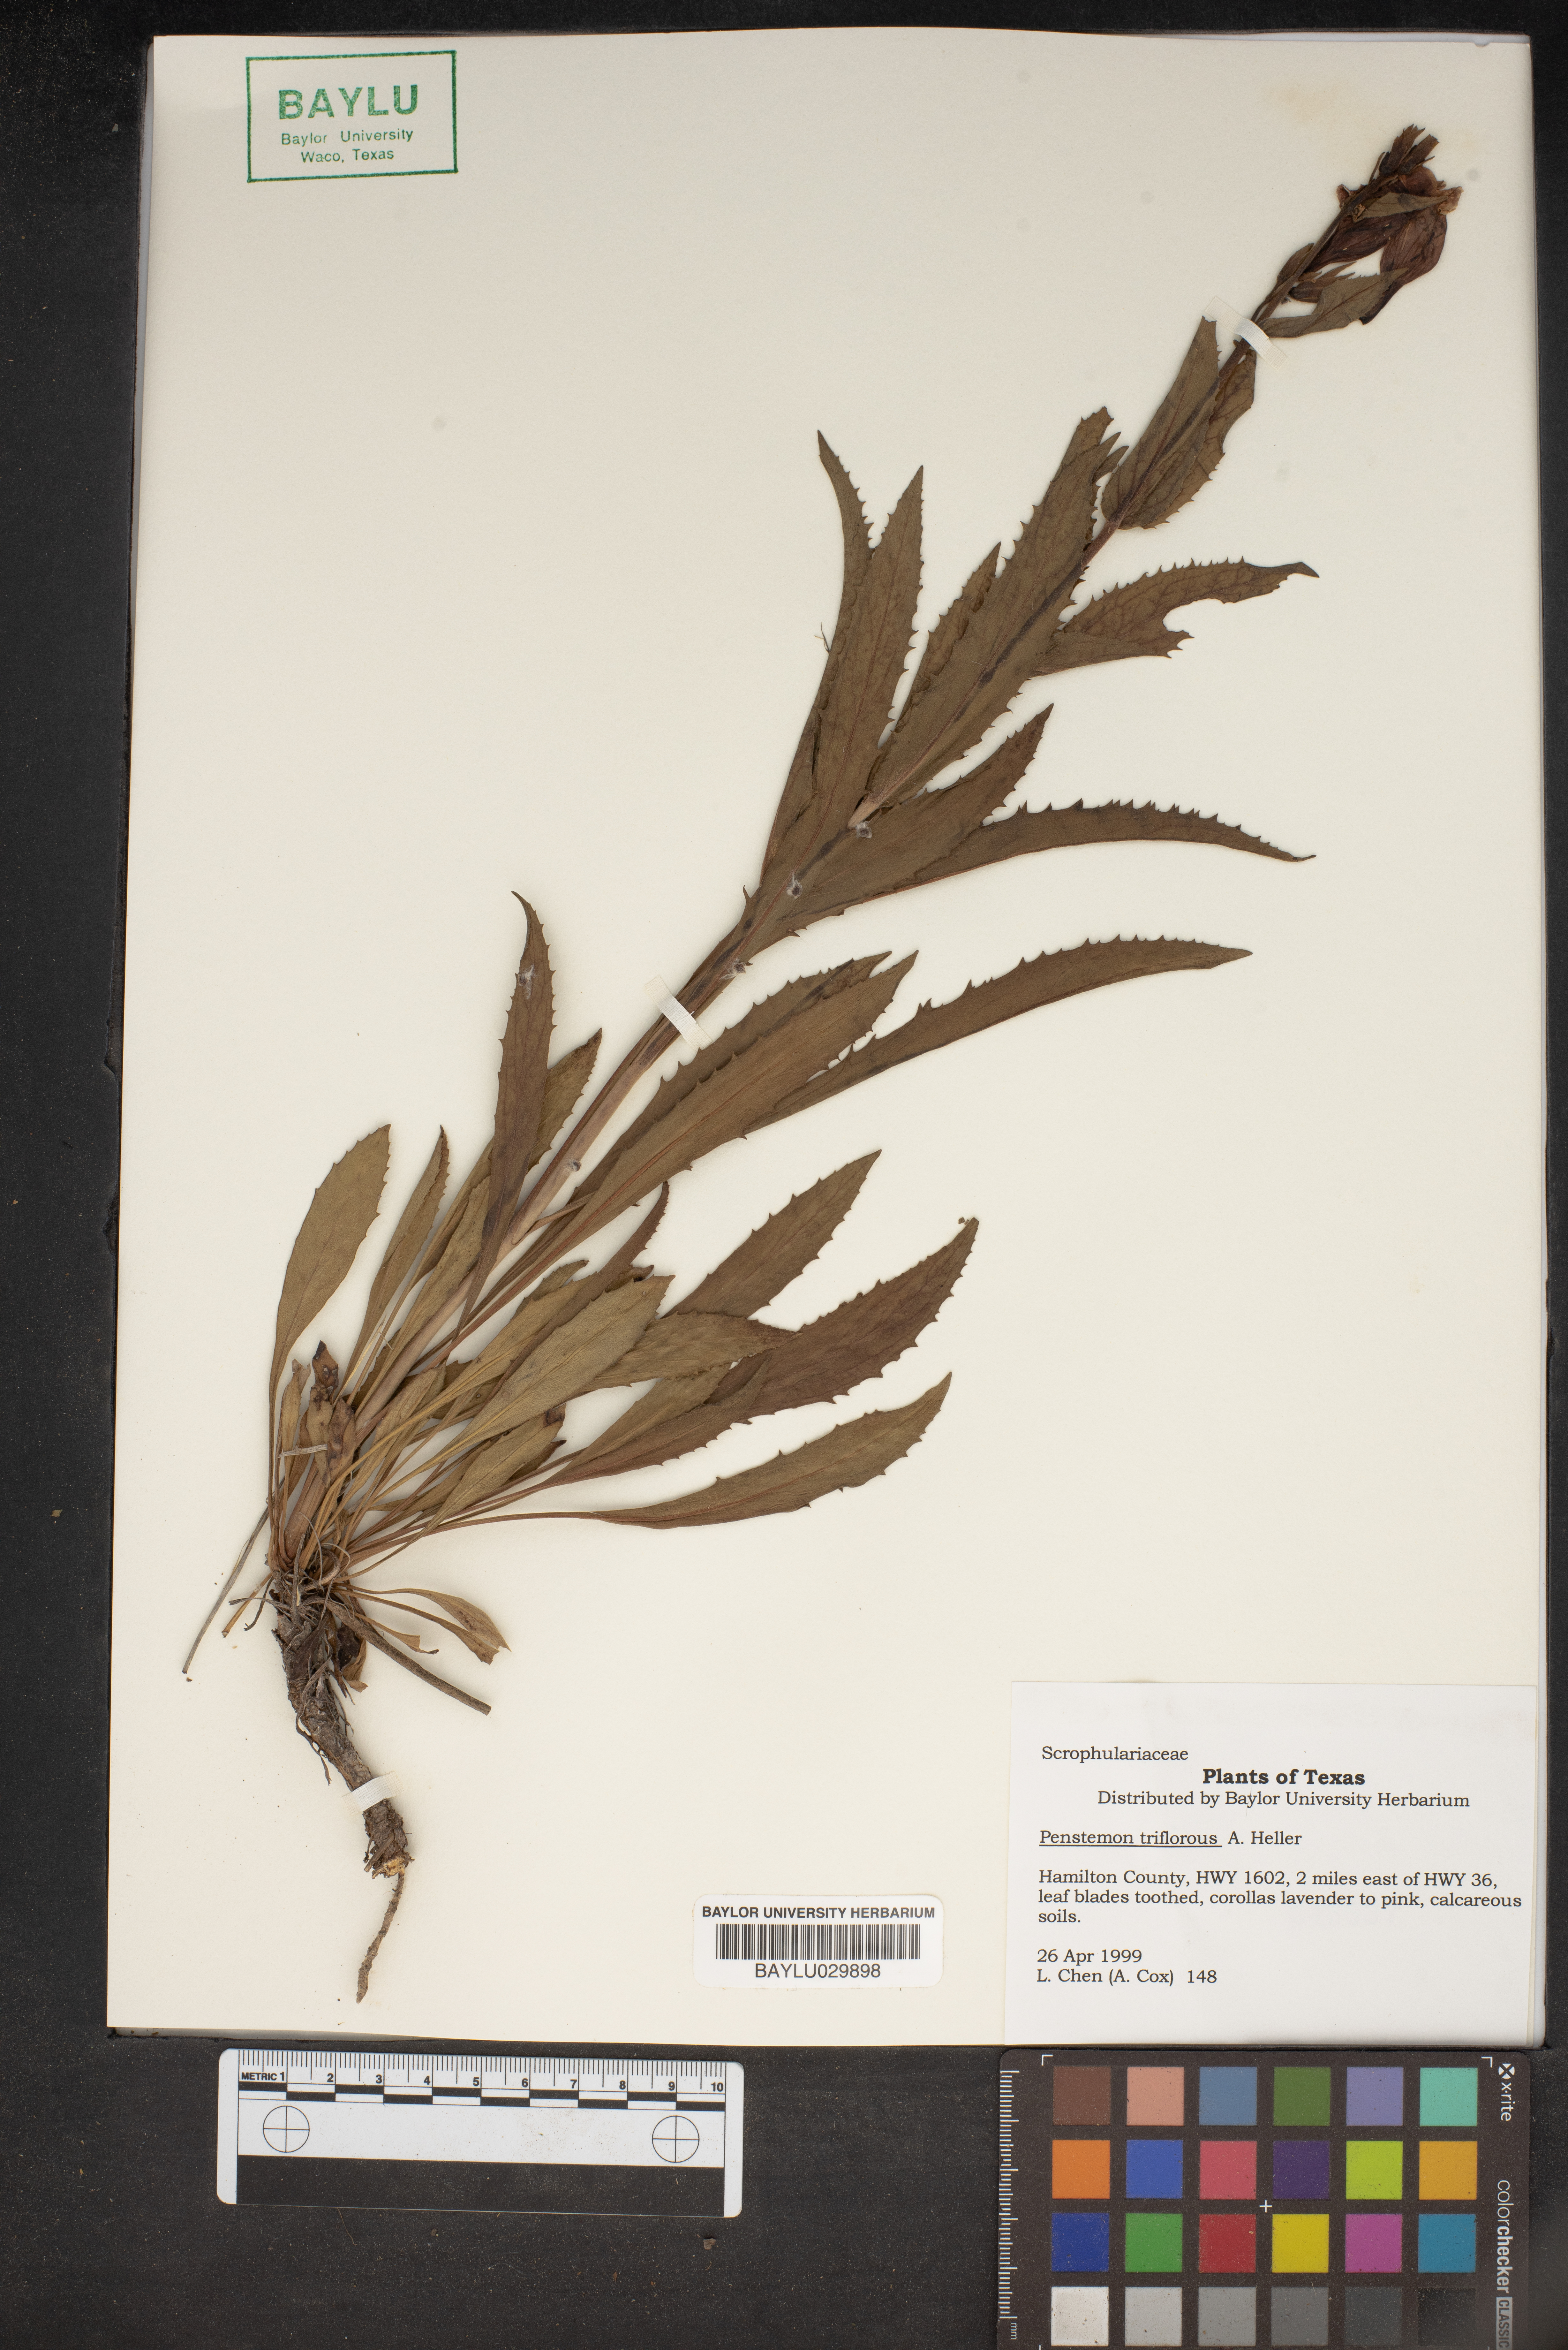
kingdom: Plantae
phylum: Tracheophyta
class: Magnoliopsida
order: Lamiales
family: Plantaginaceae
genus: Penstemon
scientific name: Penstemon triflorus
